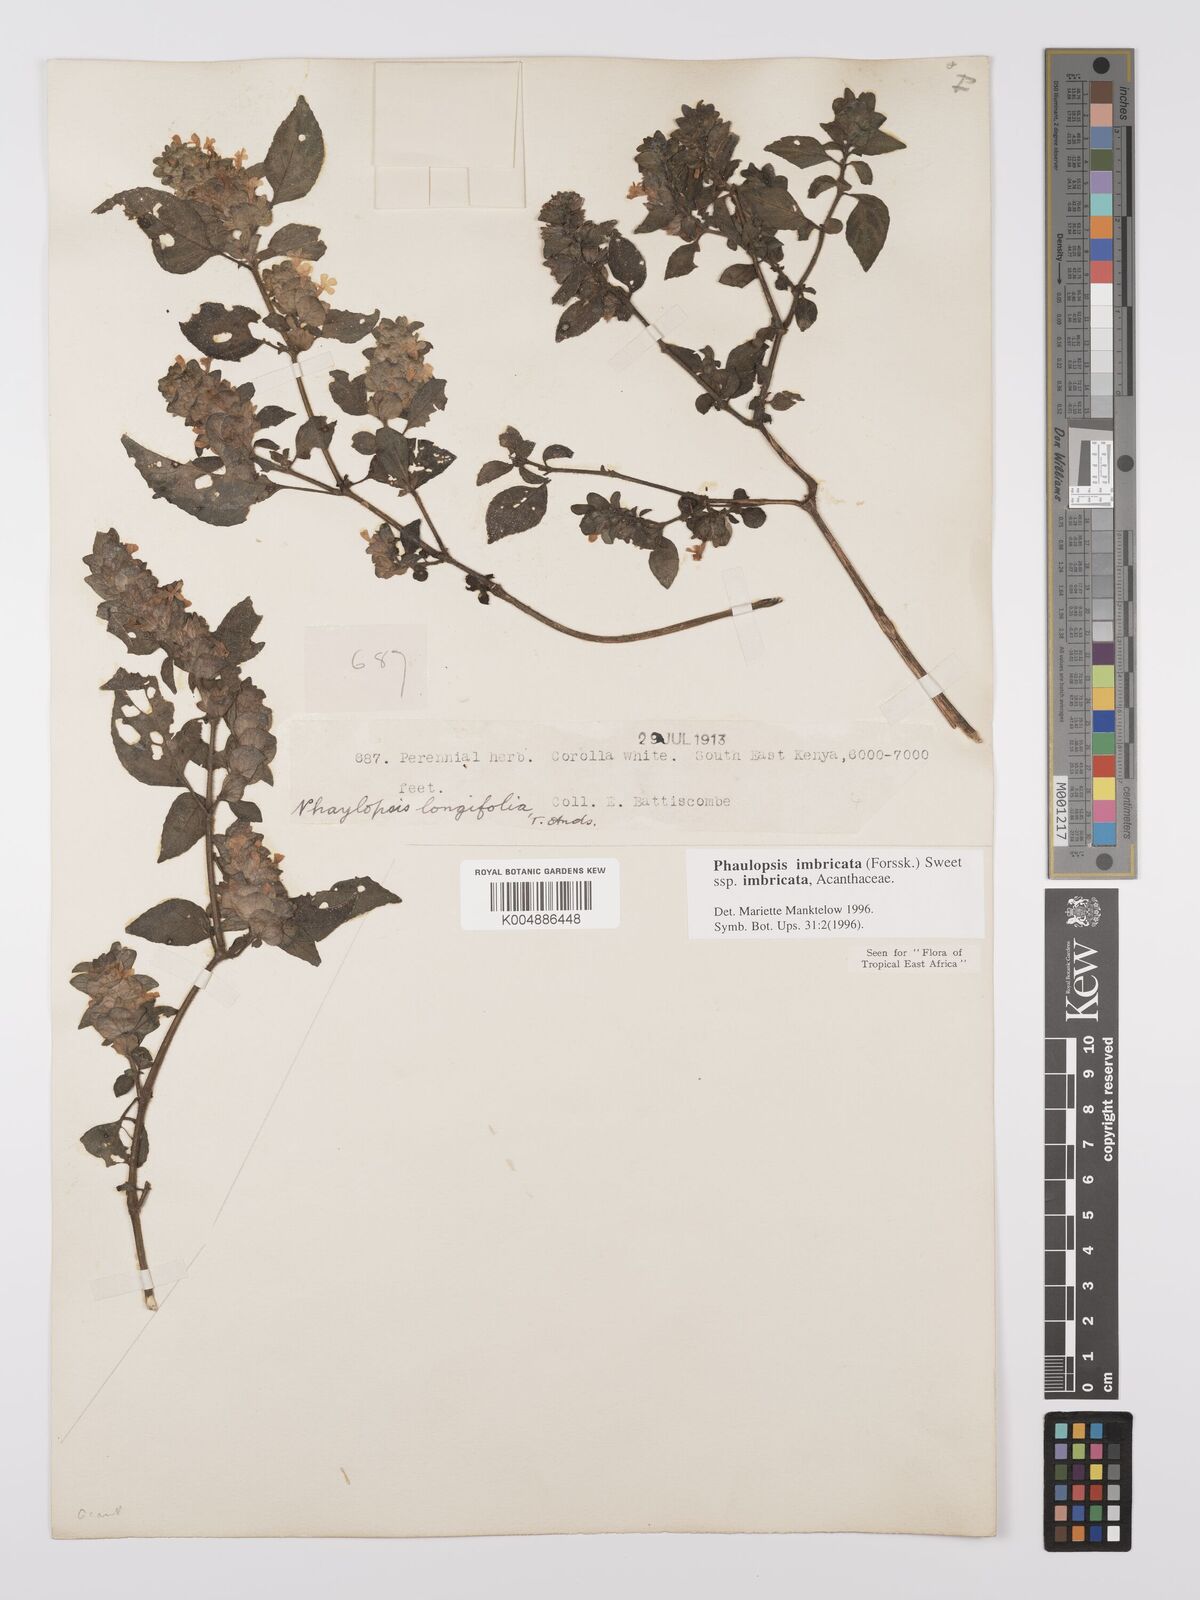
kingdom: Plantae
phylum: Tracheophyta
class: Magnoliopsida
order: Lamiales
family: Acanthaceae
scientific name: Acanthaceae
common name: Acanthaceae
